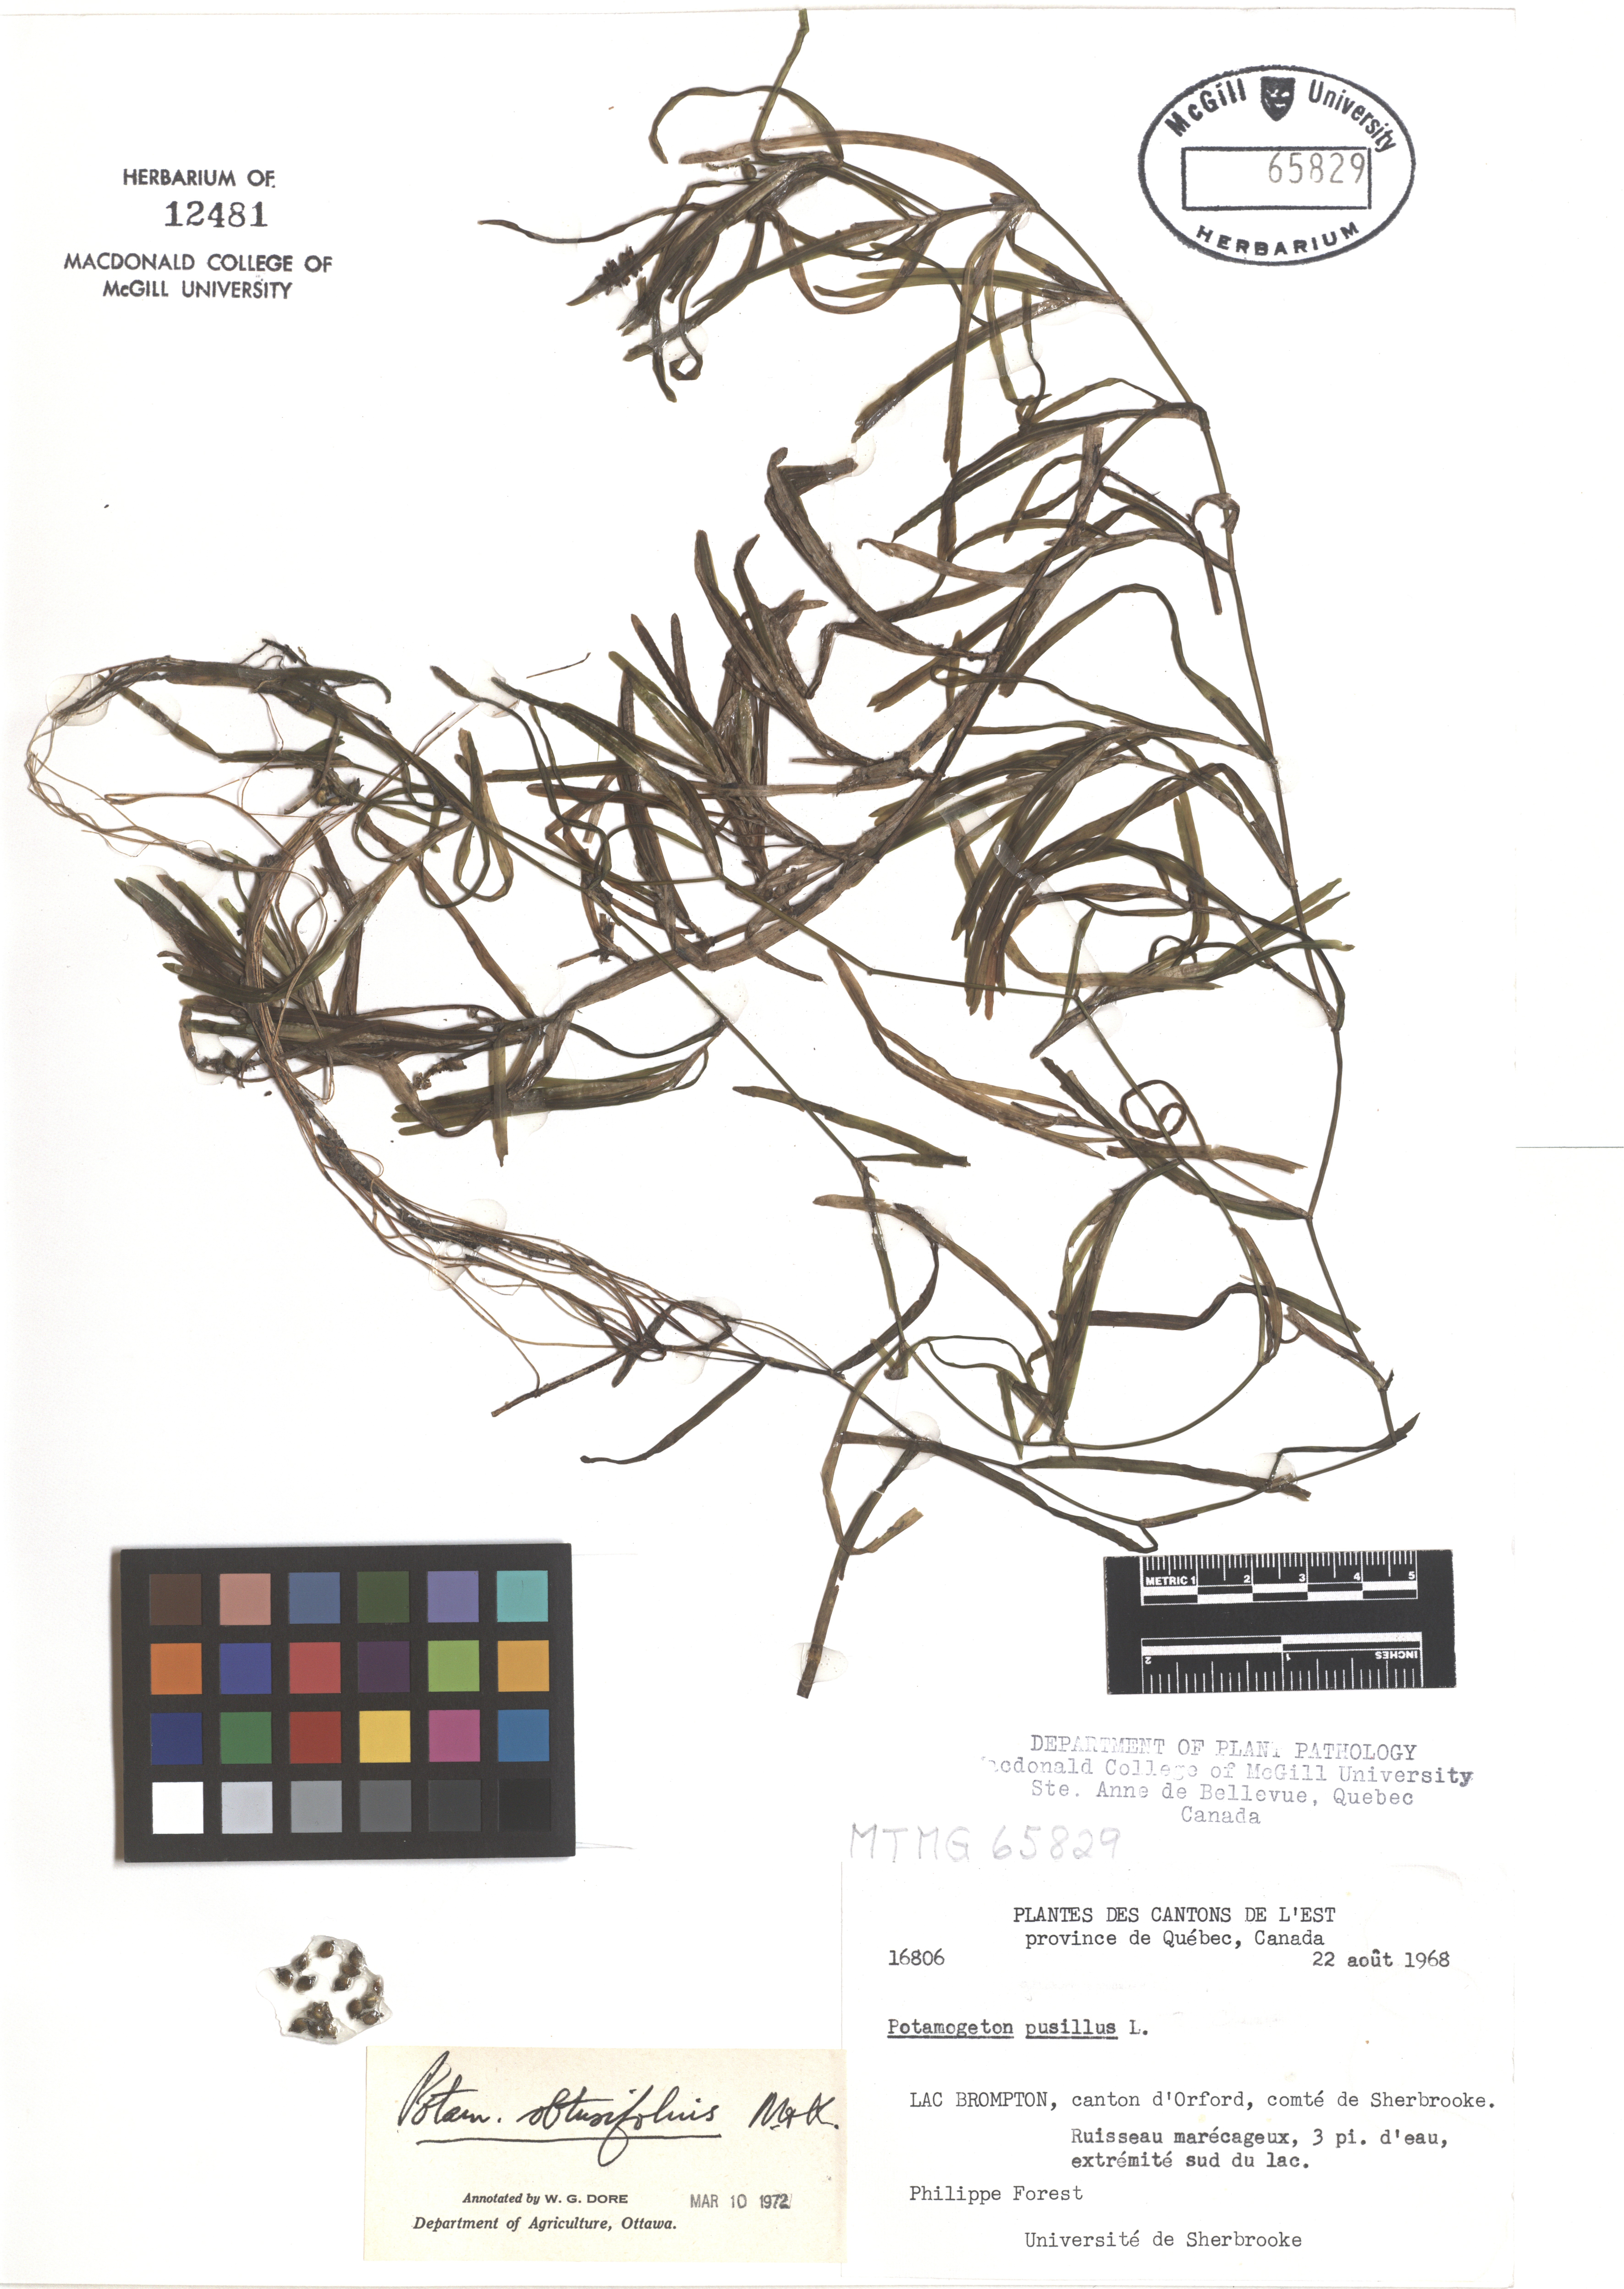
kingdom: Plantae
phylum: Tracheophyta
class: Liliopsida
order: Alismatales
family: Potamogetonaceae
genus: Potamogeton
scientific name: Potamogeton obtusifolius
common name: Blunt-leaved pondweed
